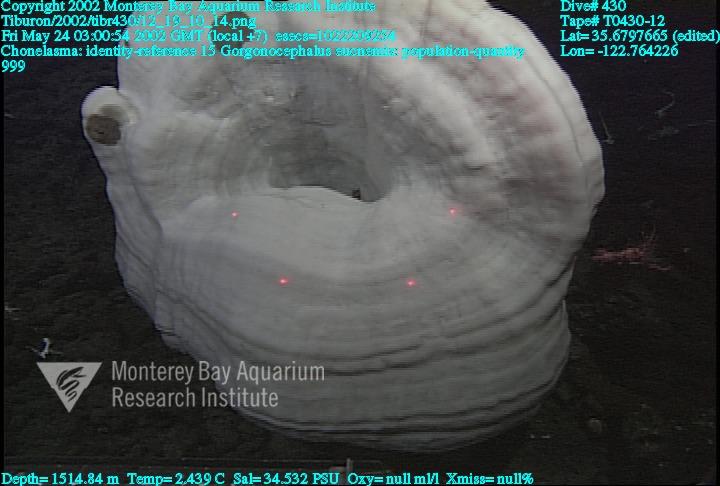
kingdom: Animalia
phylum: Porifera
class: Hexactinellida
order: Sceptrulophora
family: Euretidae
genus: Chonelasma
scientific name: Chonelasma
